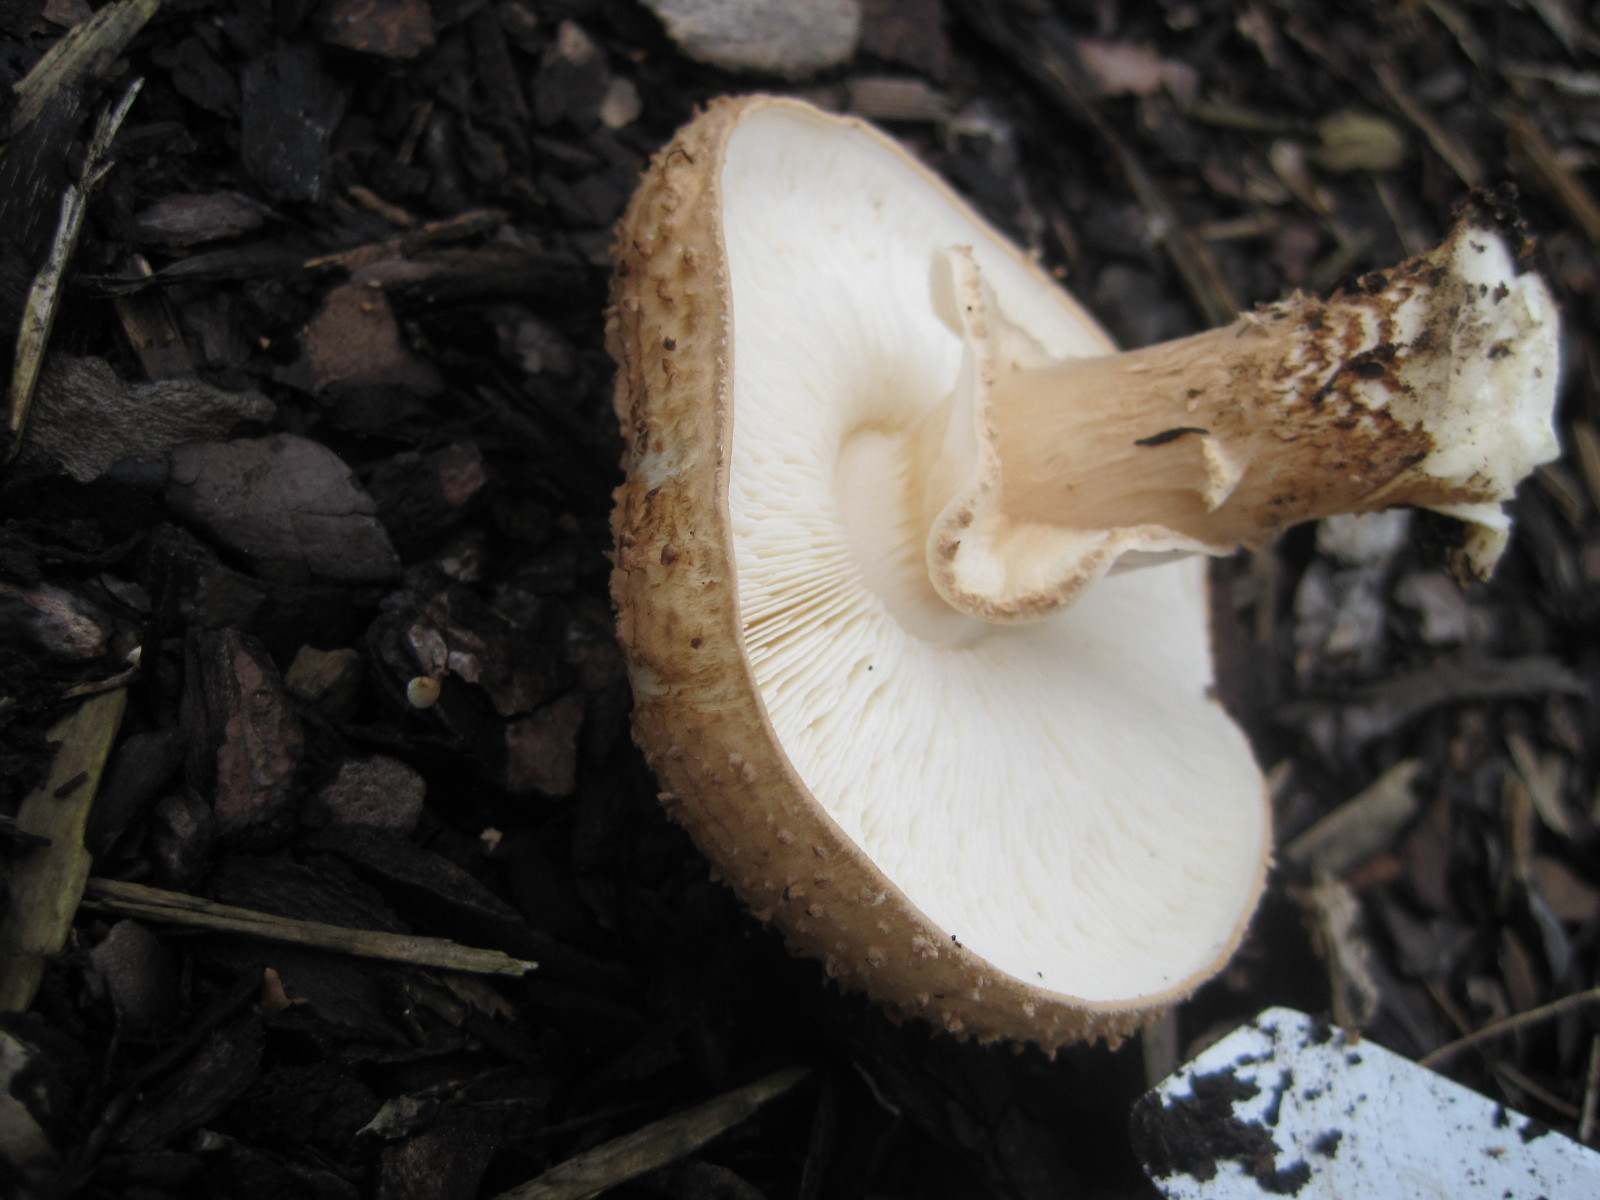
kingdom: Fungi
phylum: Basidiomycota
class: Agaricomycetes
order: Agaricales
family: Agaricaceae
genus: Echinoderma
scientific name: Echinoderma asperum
